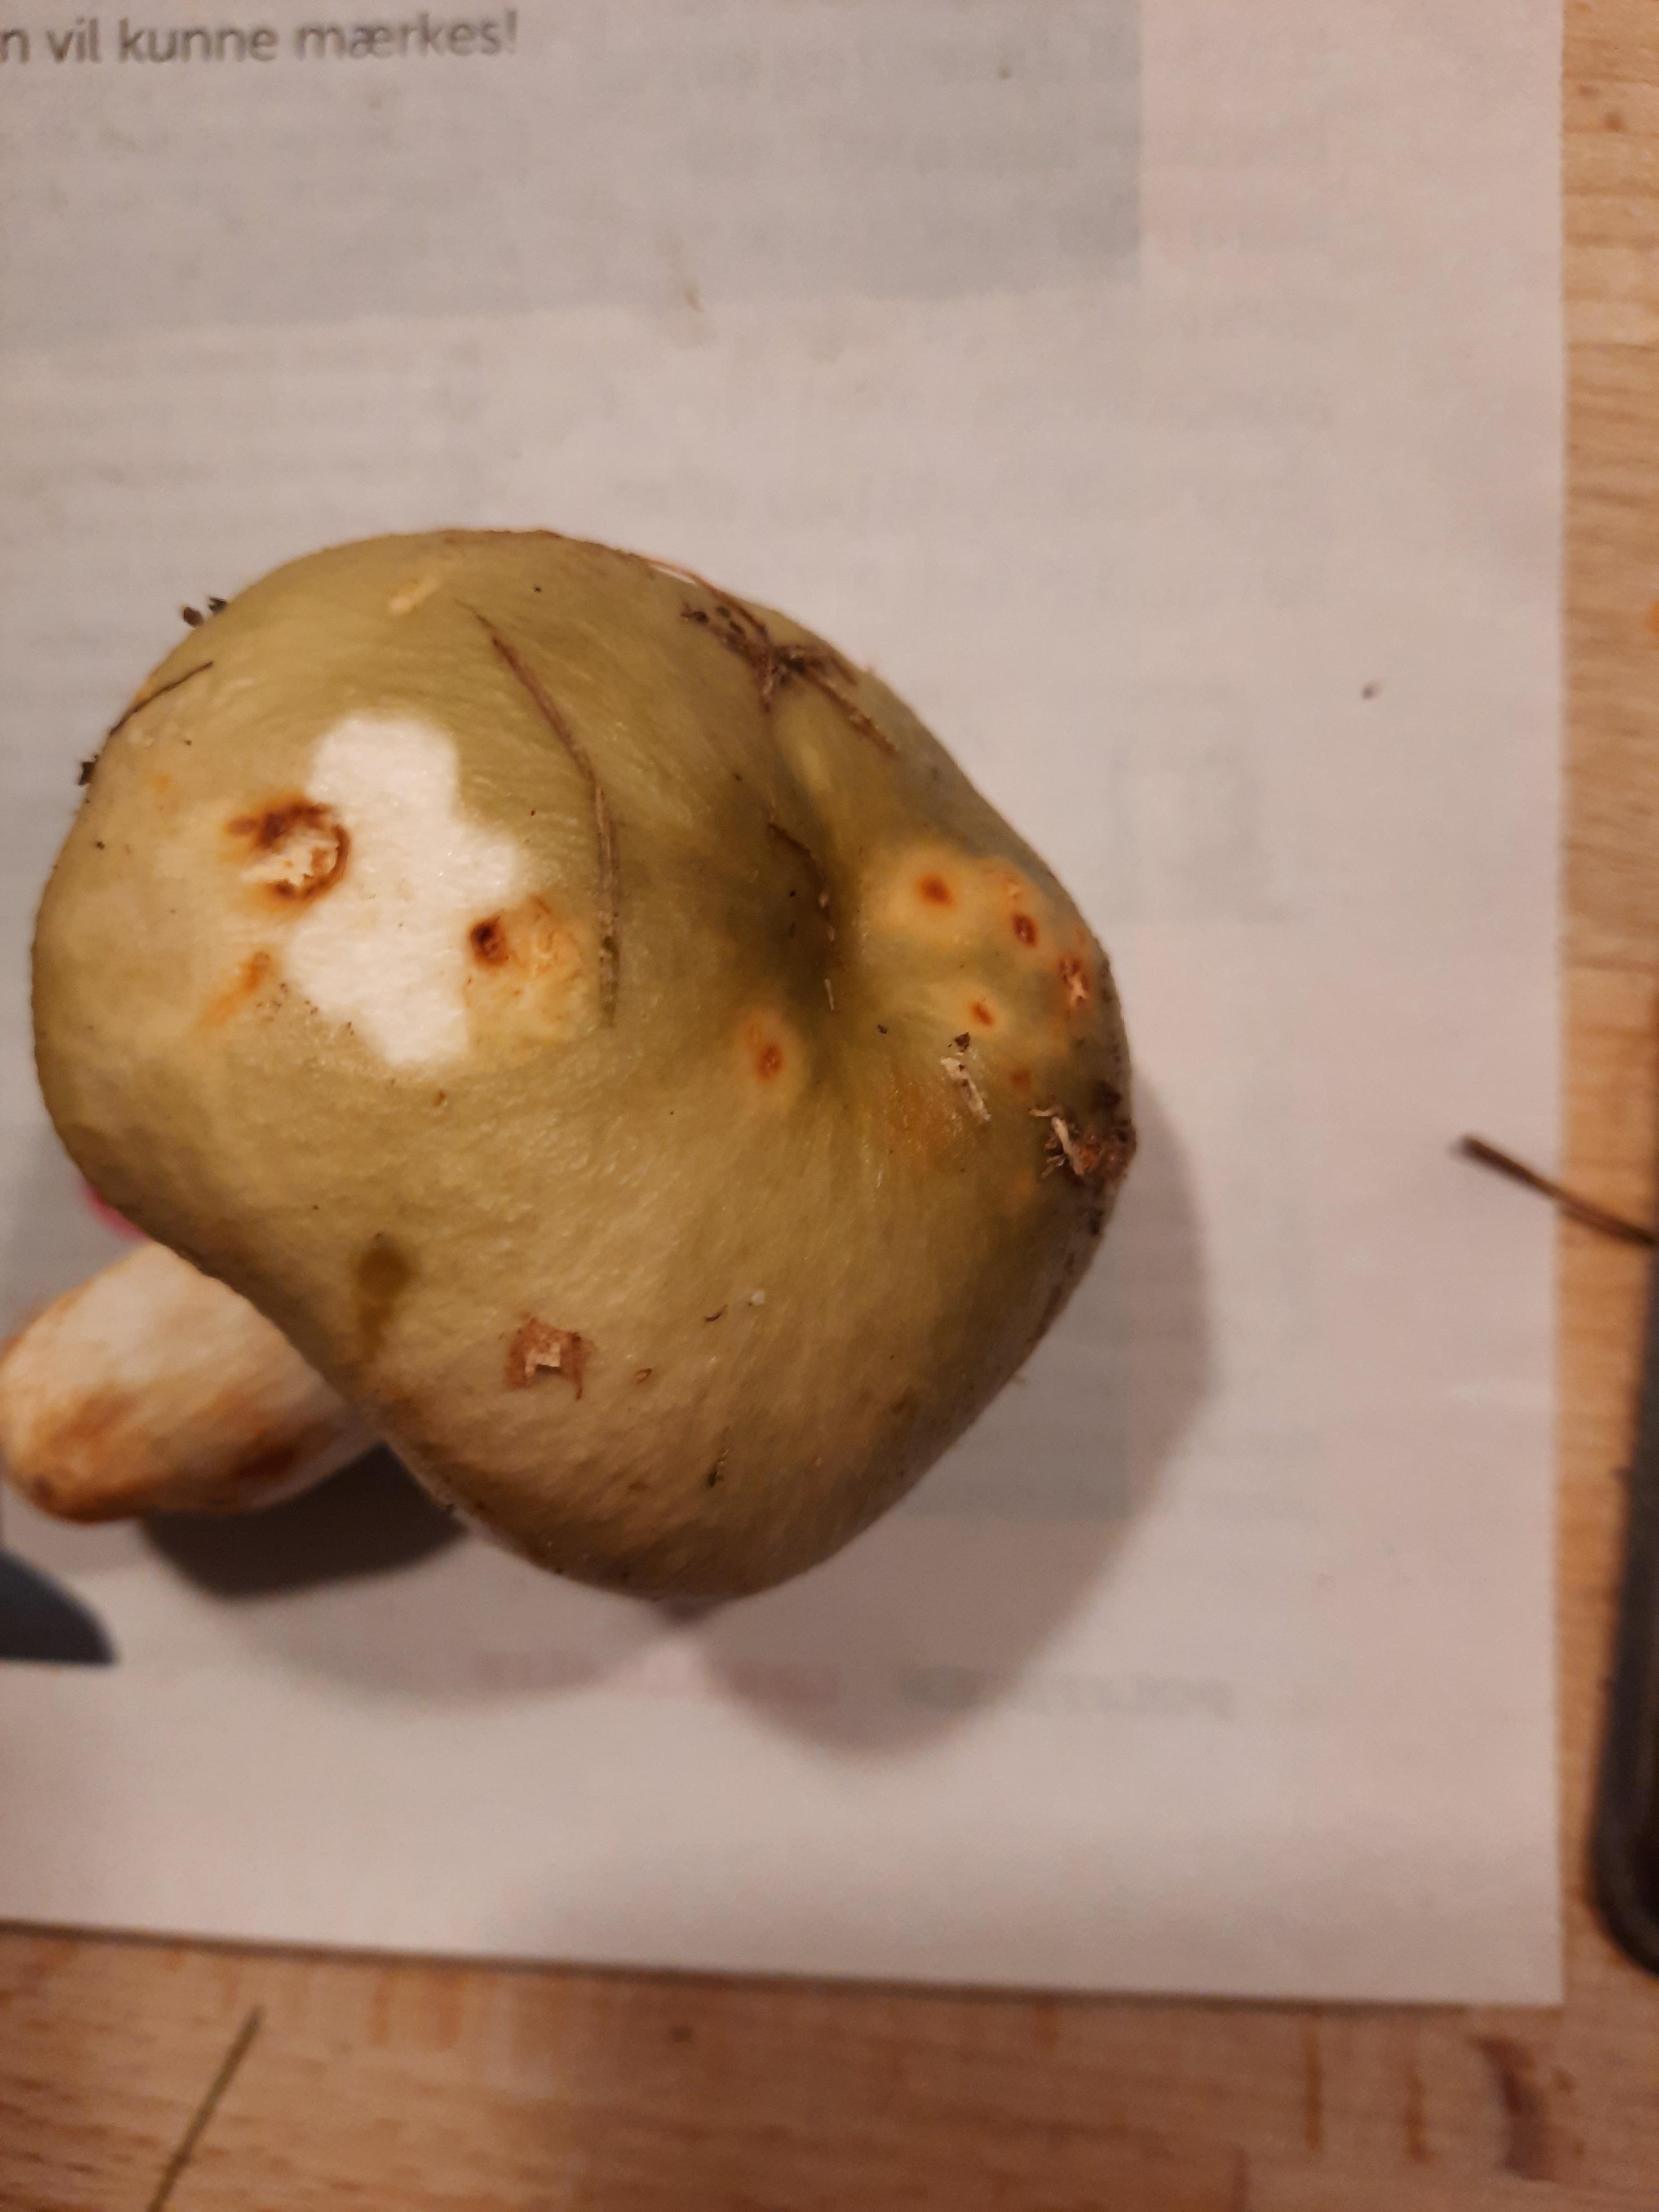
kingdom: Fungi
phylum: Basidiomycota
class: Agaricomycetes
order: Russulales
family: Russulaceae
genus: Russula
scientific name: Russula
